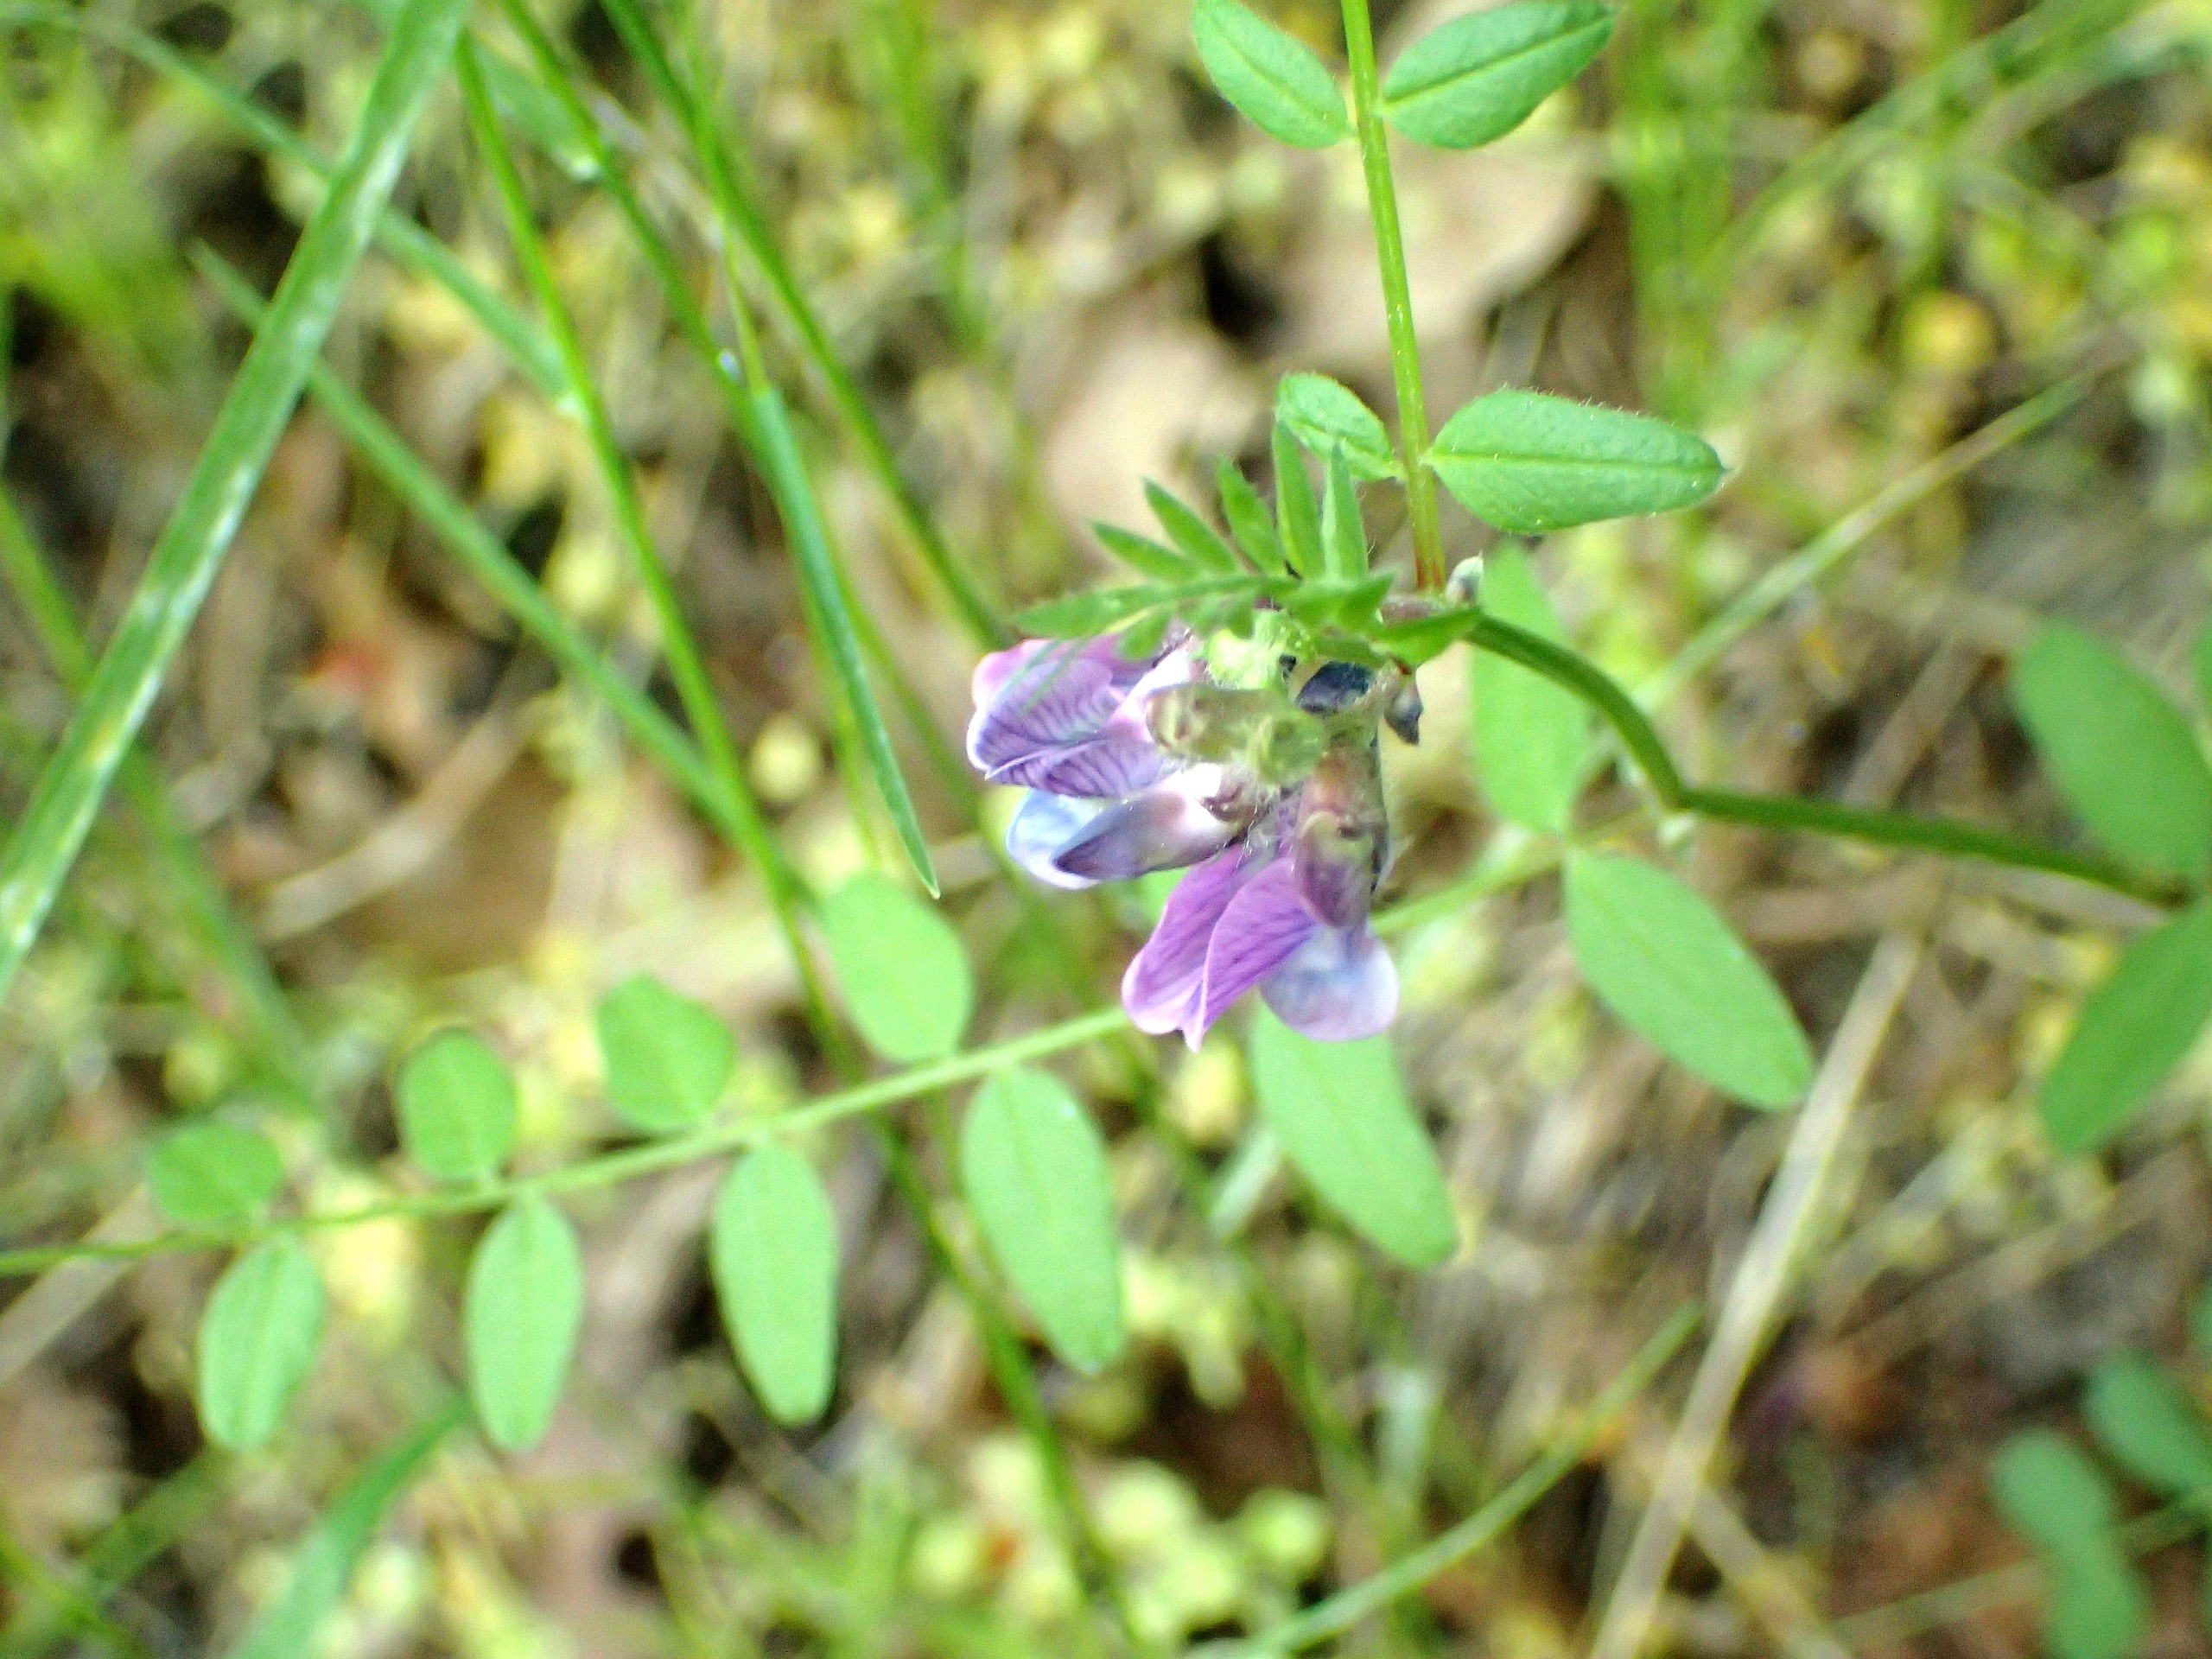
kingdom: Plantae
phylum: Tracheophyta
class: Magnoliopsida
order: Fabales
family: Fabaceae
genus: Vicia
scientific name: Vicia sepium
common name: Gærde-vikke
